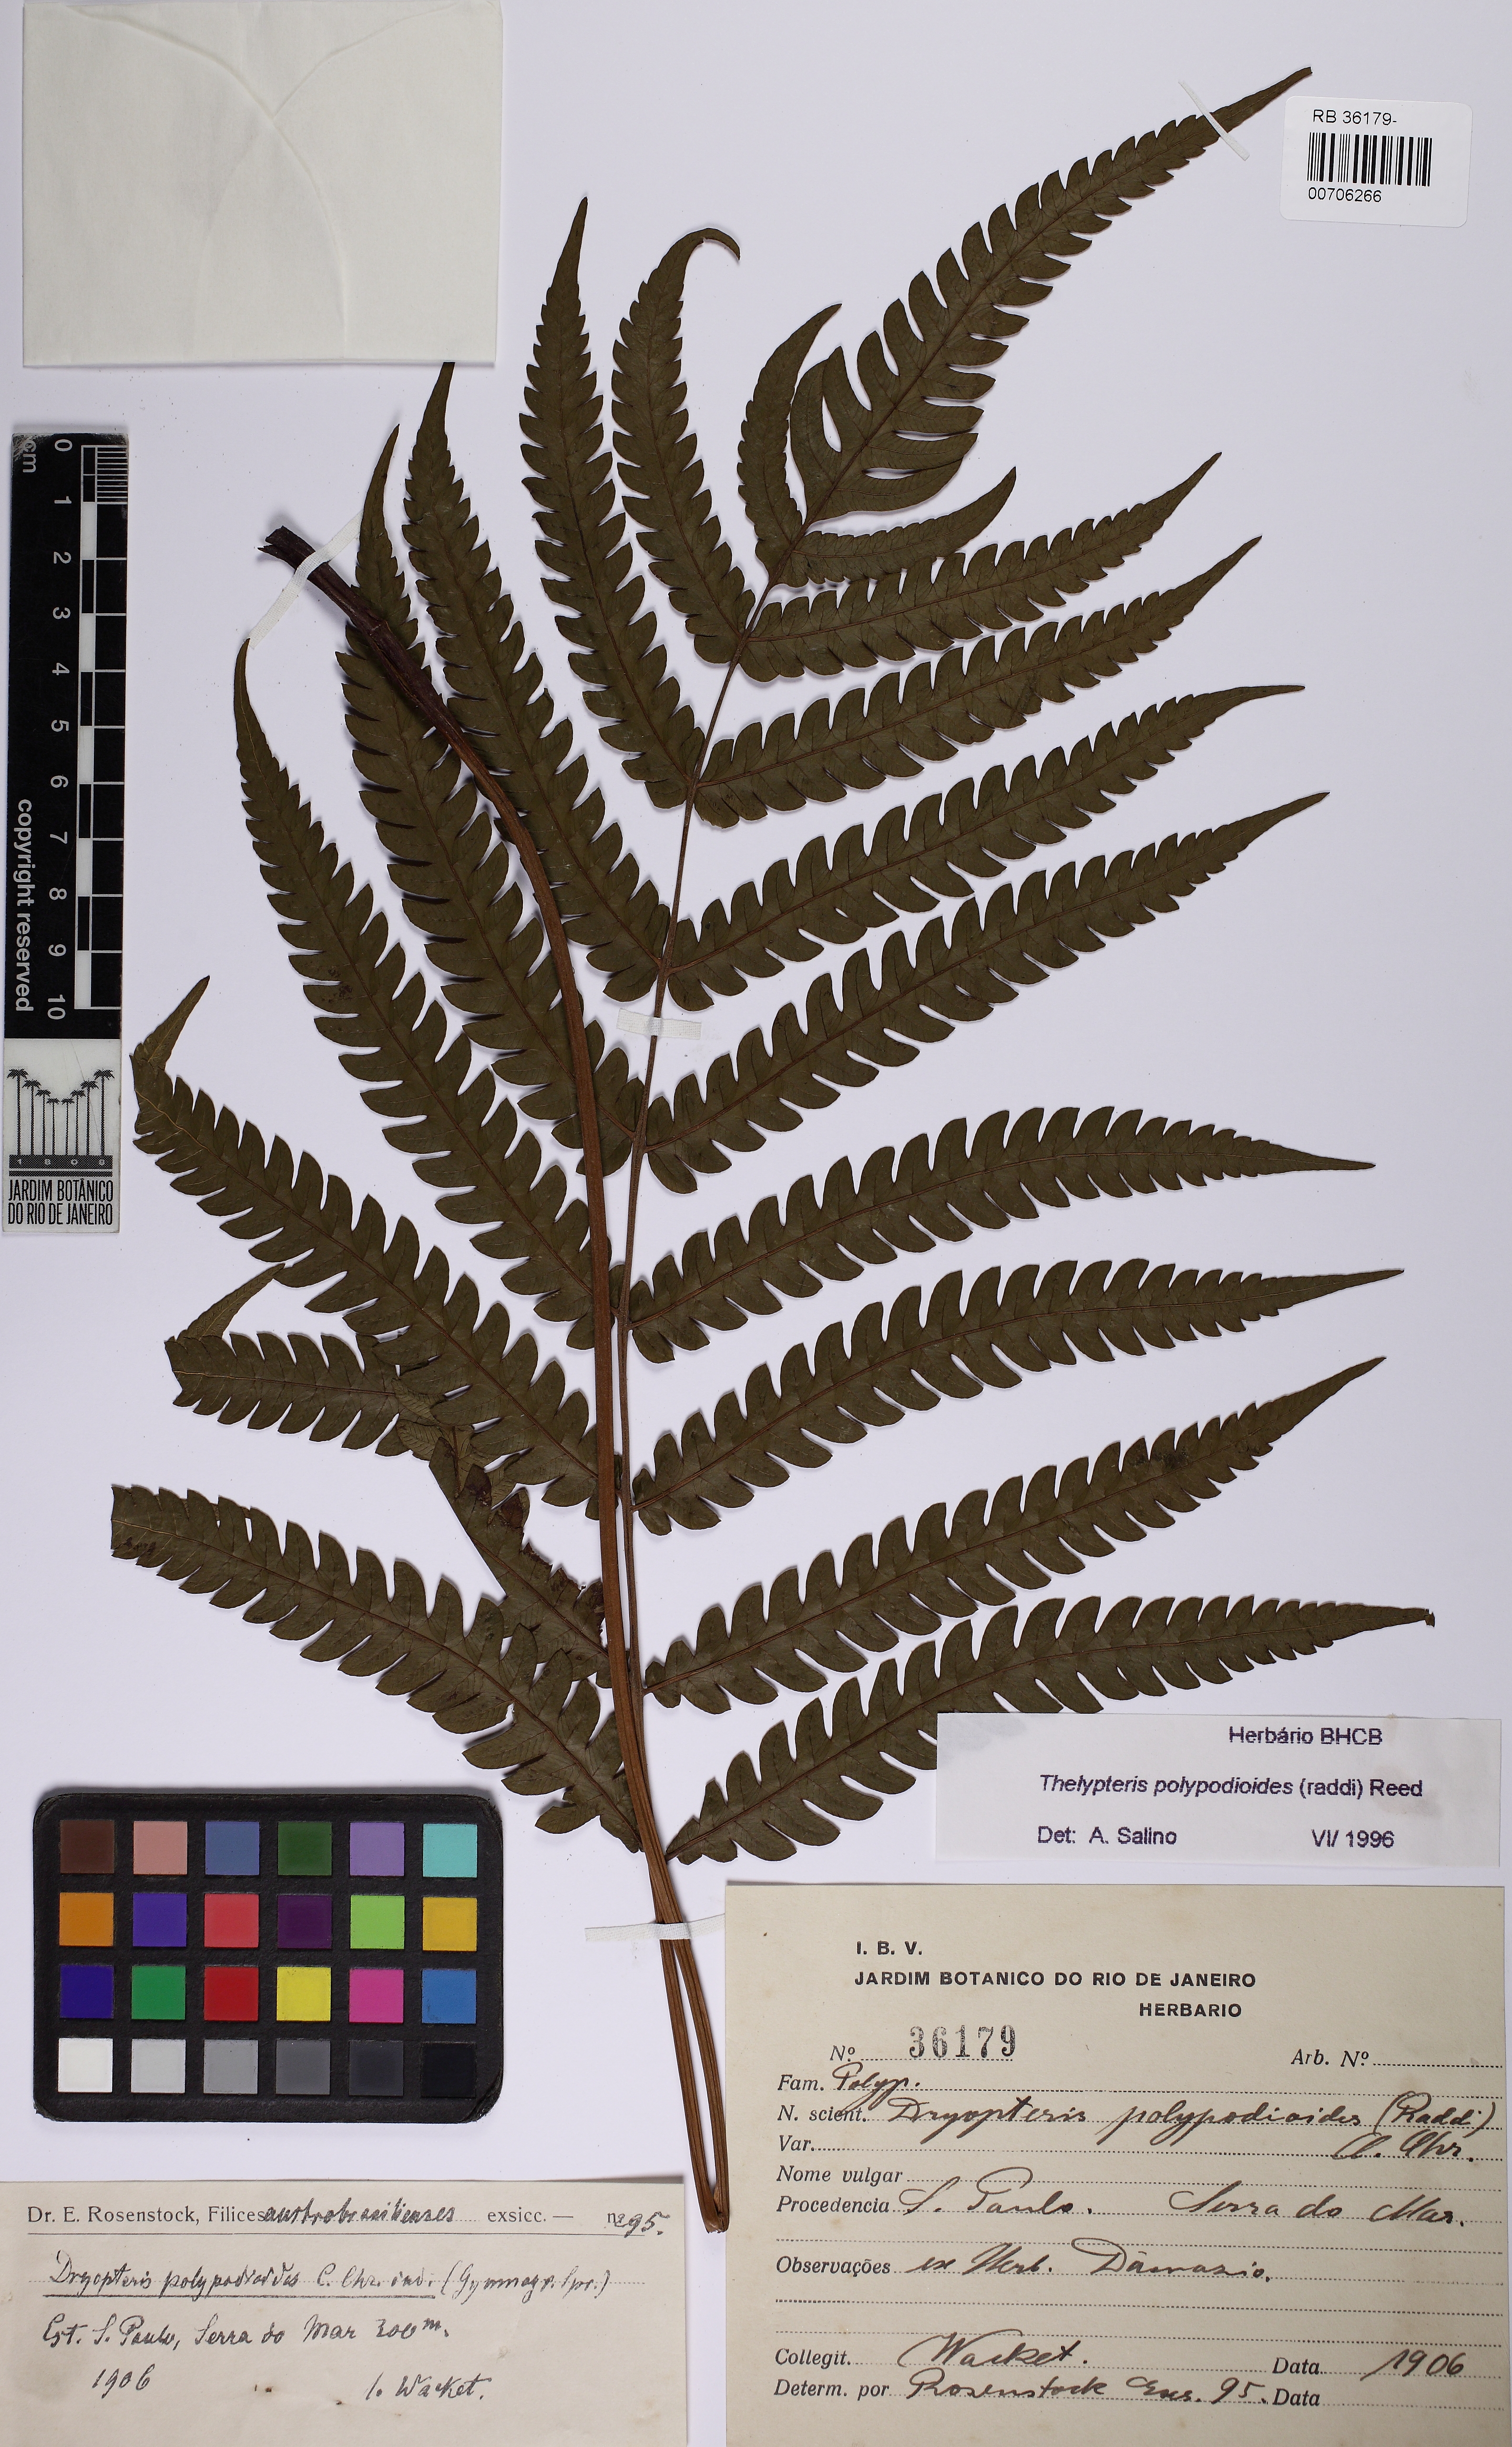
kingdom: Plantae
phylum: Tracheophyta
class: Polypodiopsida
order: Polypodiales
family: Thelypteridaceae
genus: Steiropteris
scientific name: Steiropteris polypodioides
